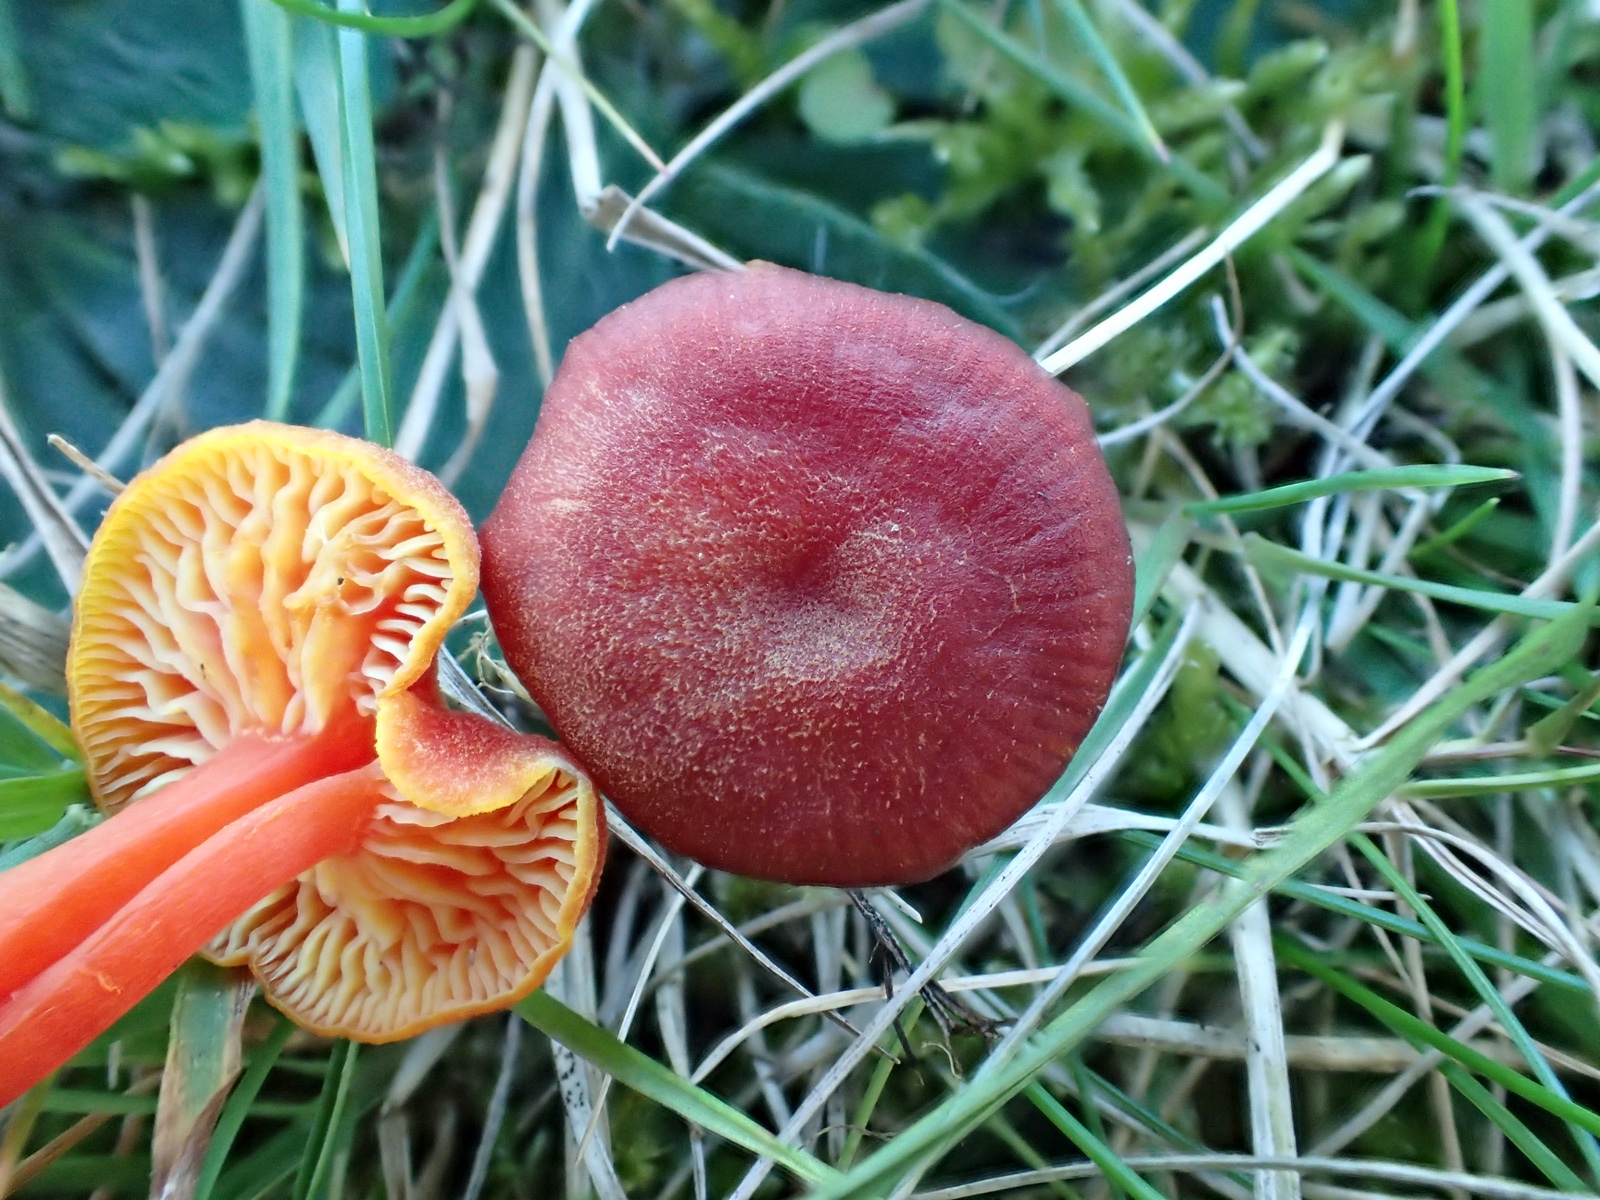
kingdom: Fungi
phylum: Basidiomycota
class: Agaricomycetes
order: Agaricales
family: Hygrophoraceae
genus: Hygrocybe
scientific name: Hygrocybe miniata
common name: mønje-vokshat
